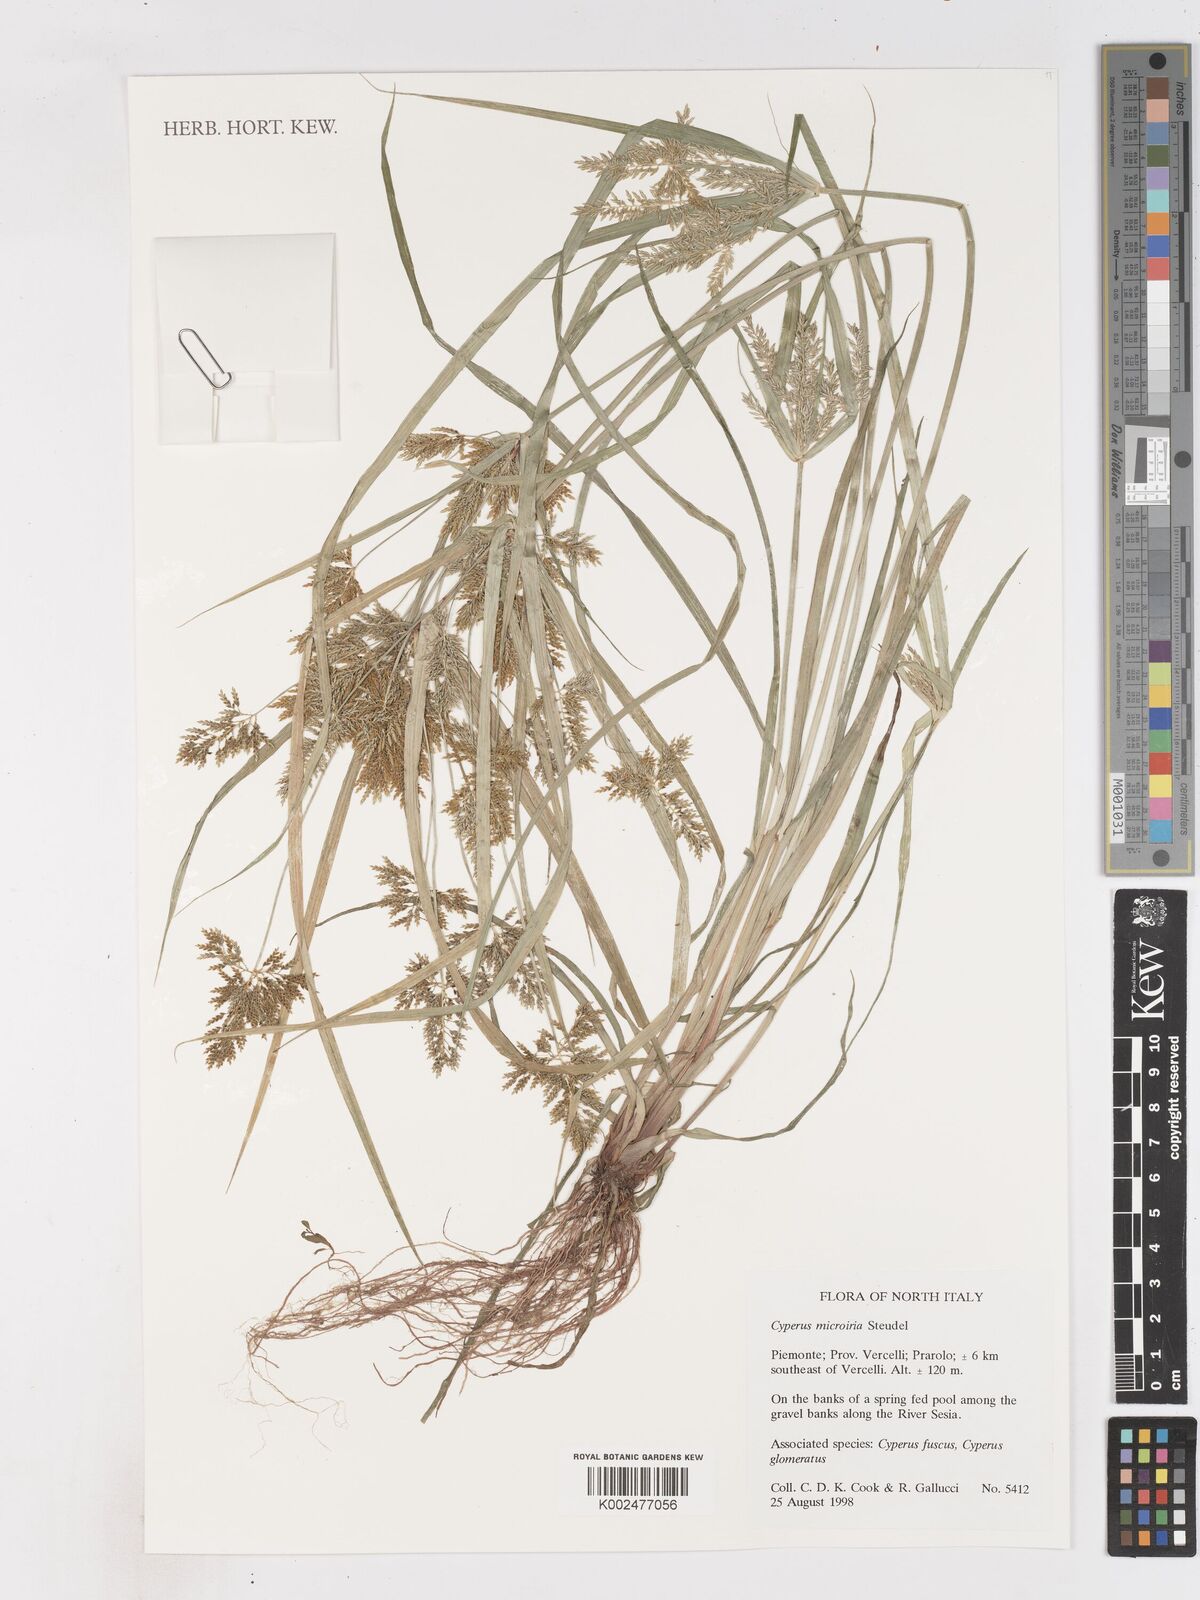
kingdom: Plantae
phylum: Tracheophyta
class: Liliopsida
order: Poales
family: Cyperaceae
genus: Cyperus
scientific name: Cyperus microiria
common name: Asian flatsedge
